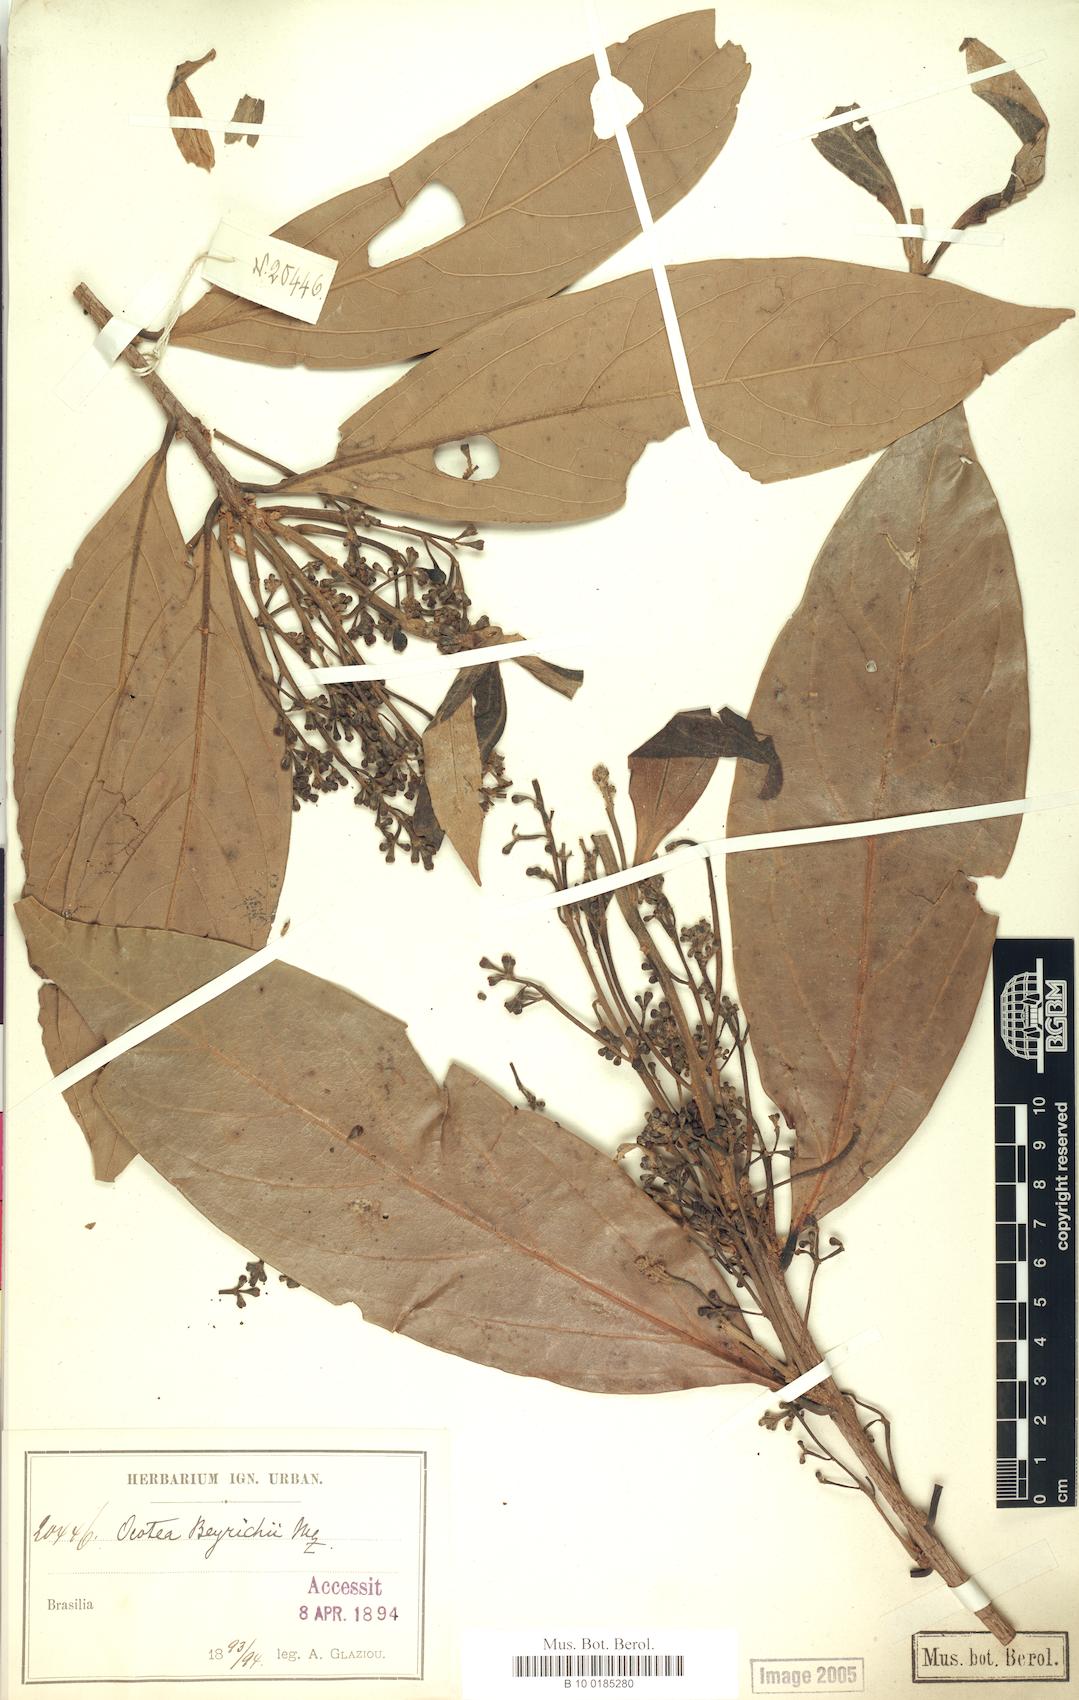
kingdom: Plantae
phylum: Tracheophyta
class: Magnoliopsida
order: Laurales
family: Lauraceae
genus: Ocotea
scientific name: Ocotea beyrichii
